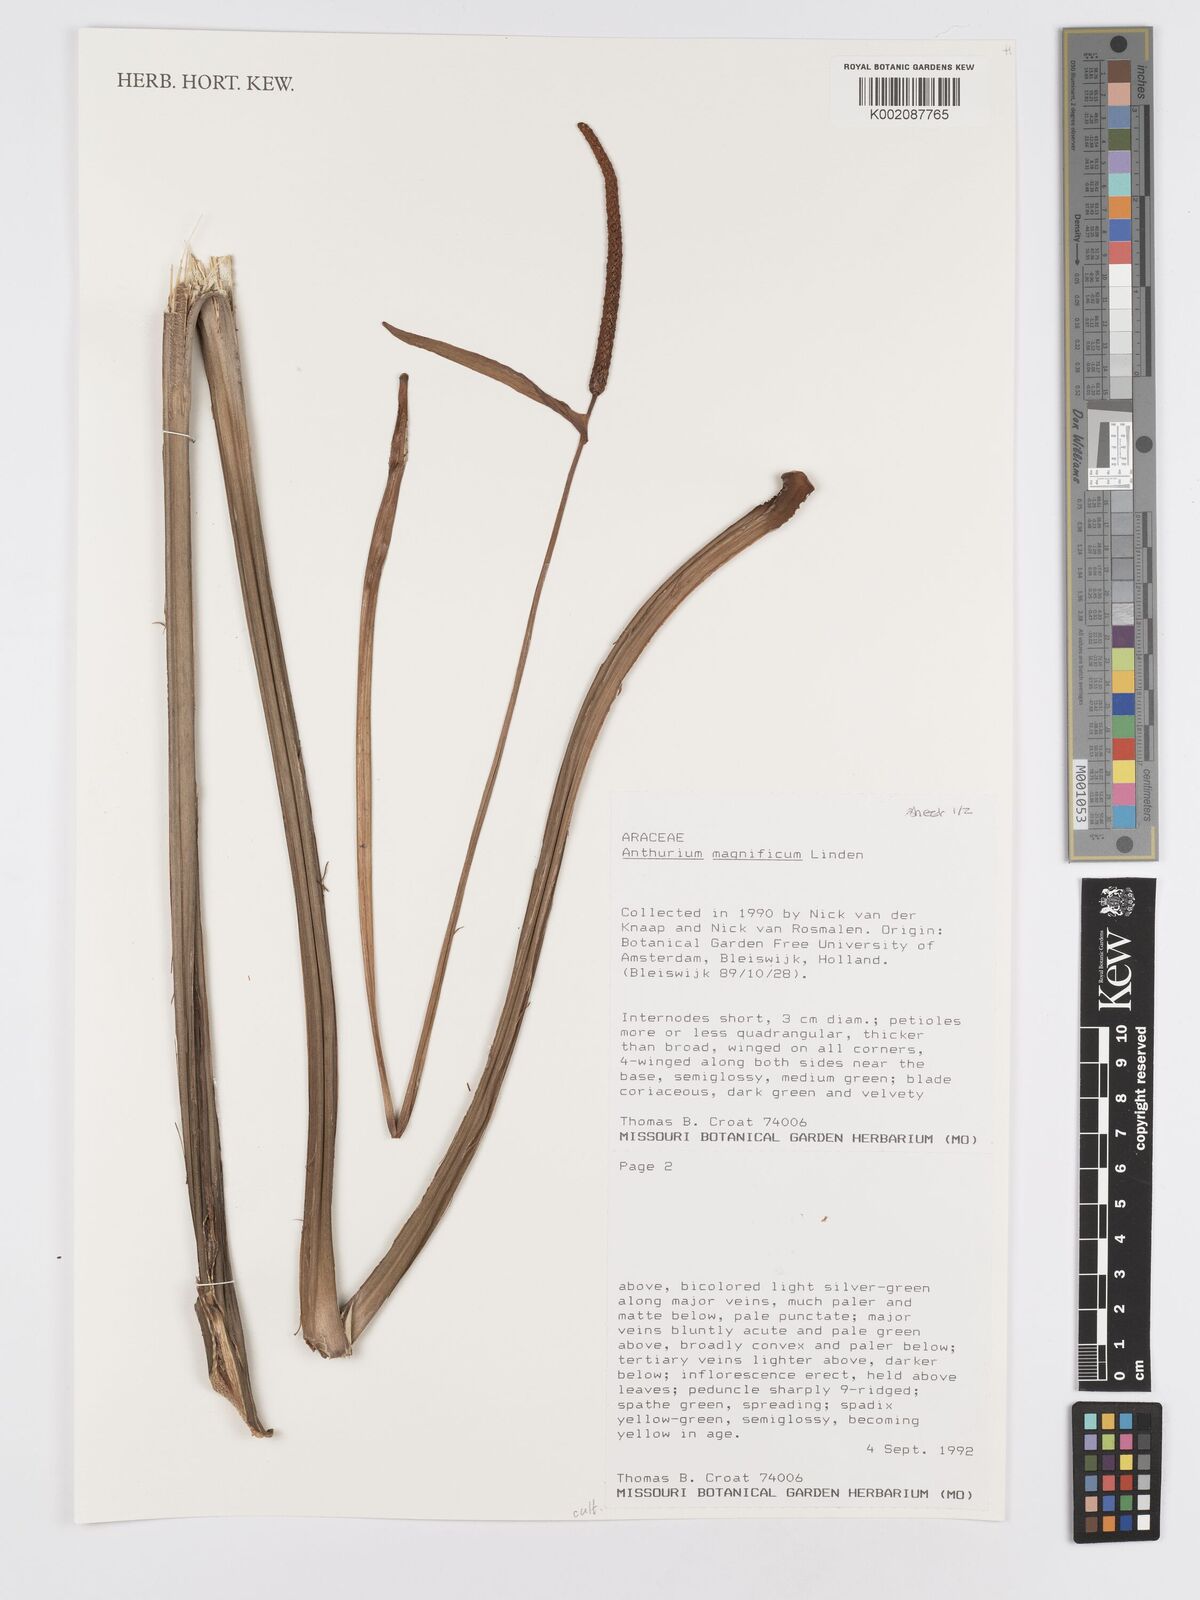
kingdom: Plantae
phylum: Tracheophyta
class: Liliopsida
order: Alismatales
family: Araceae
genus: Anthurium
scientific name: Anthurium magnificum
